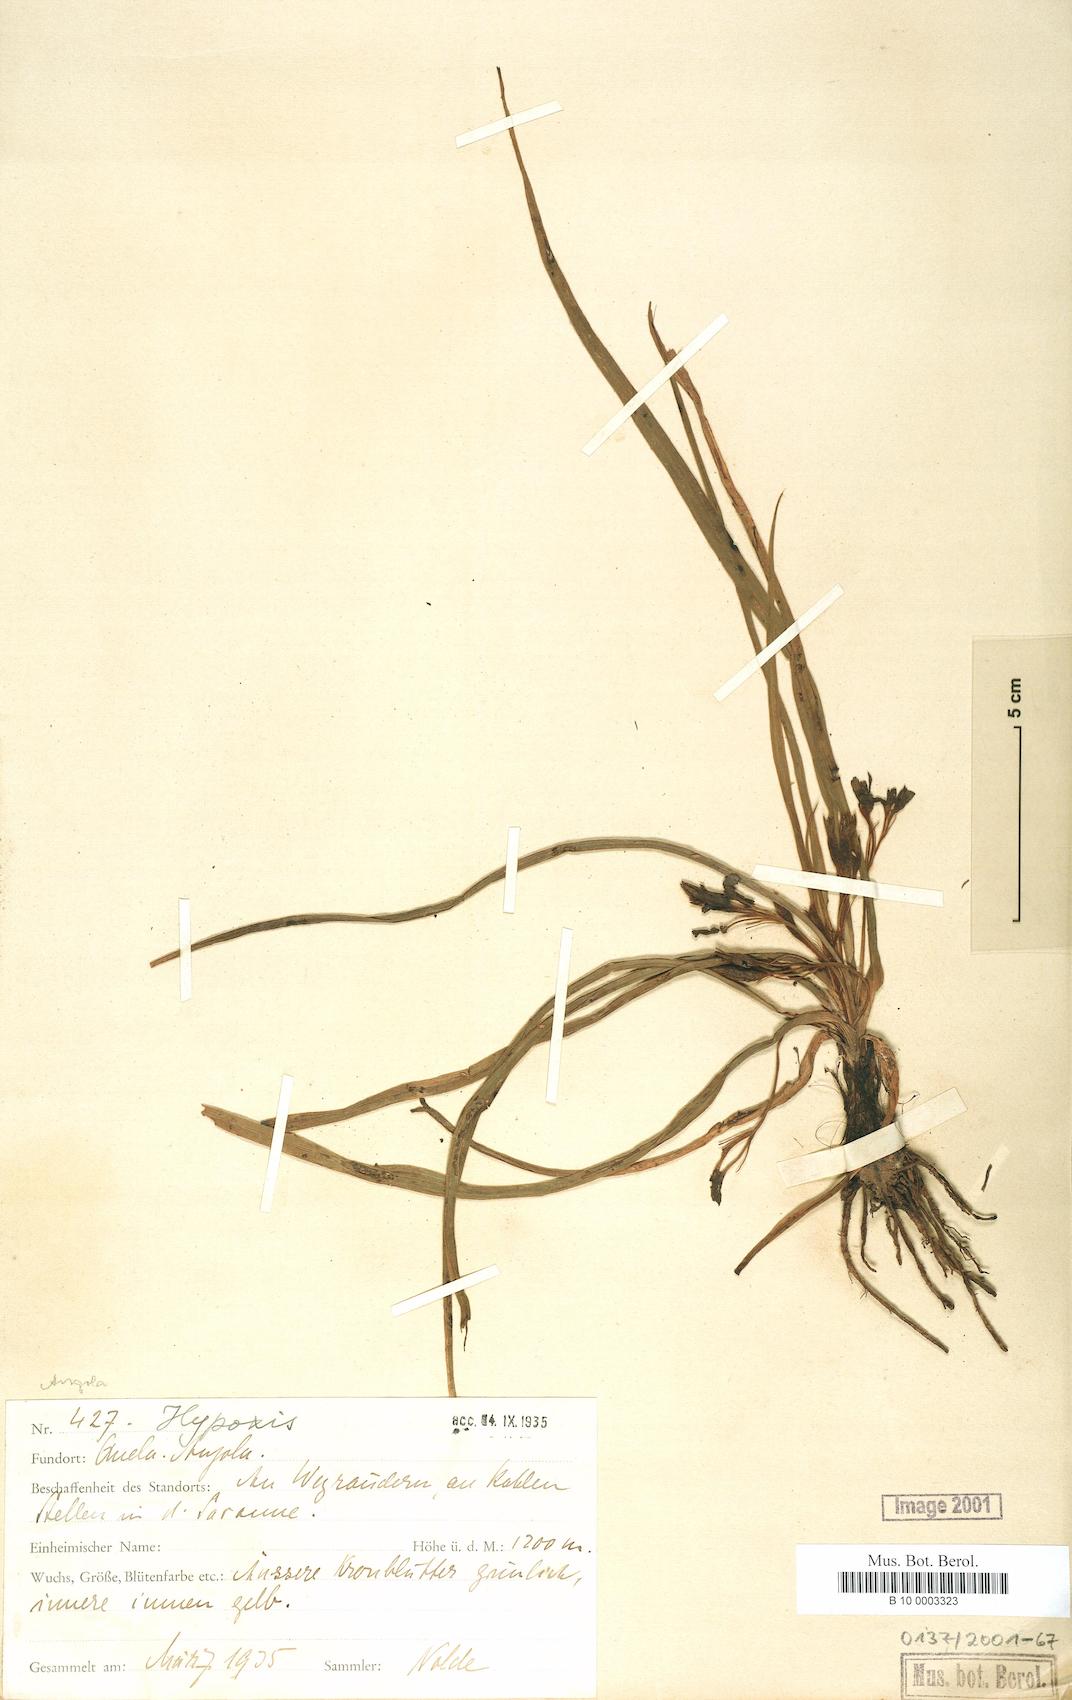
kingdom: Plantae
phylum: Tracheophyta
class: Liliopsida
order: Asparagales
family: Hypoxidaceae
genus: Hypoxis
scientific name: Hypoxis
